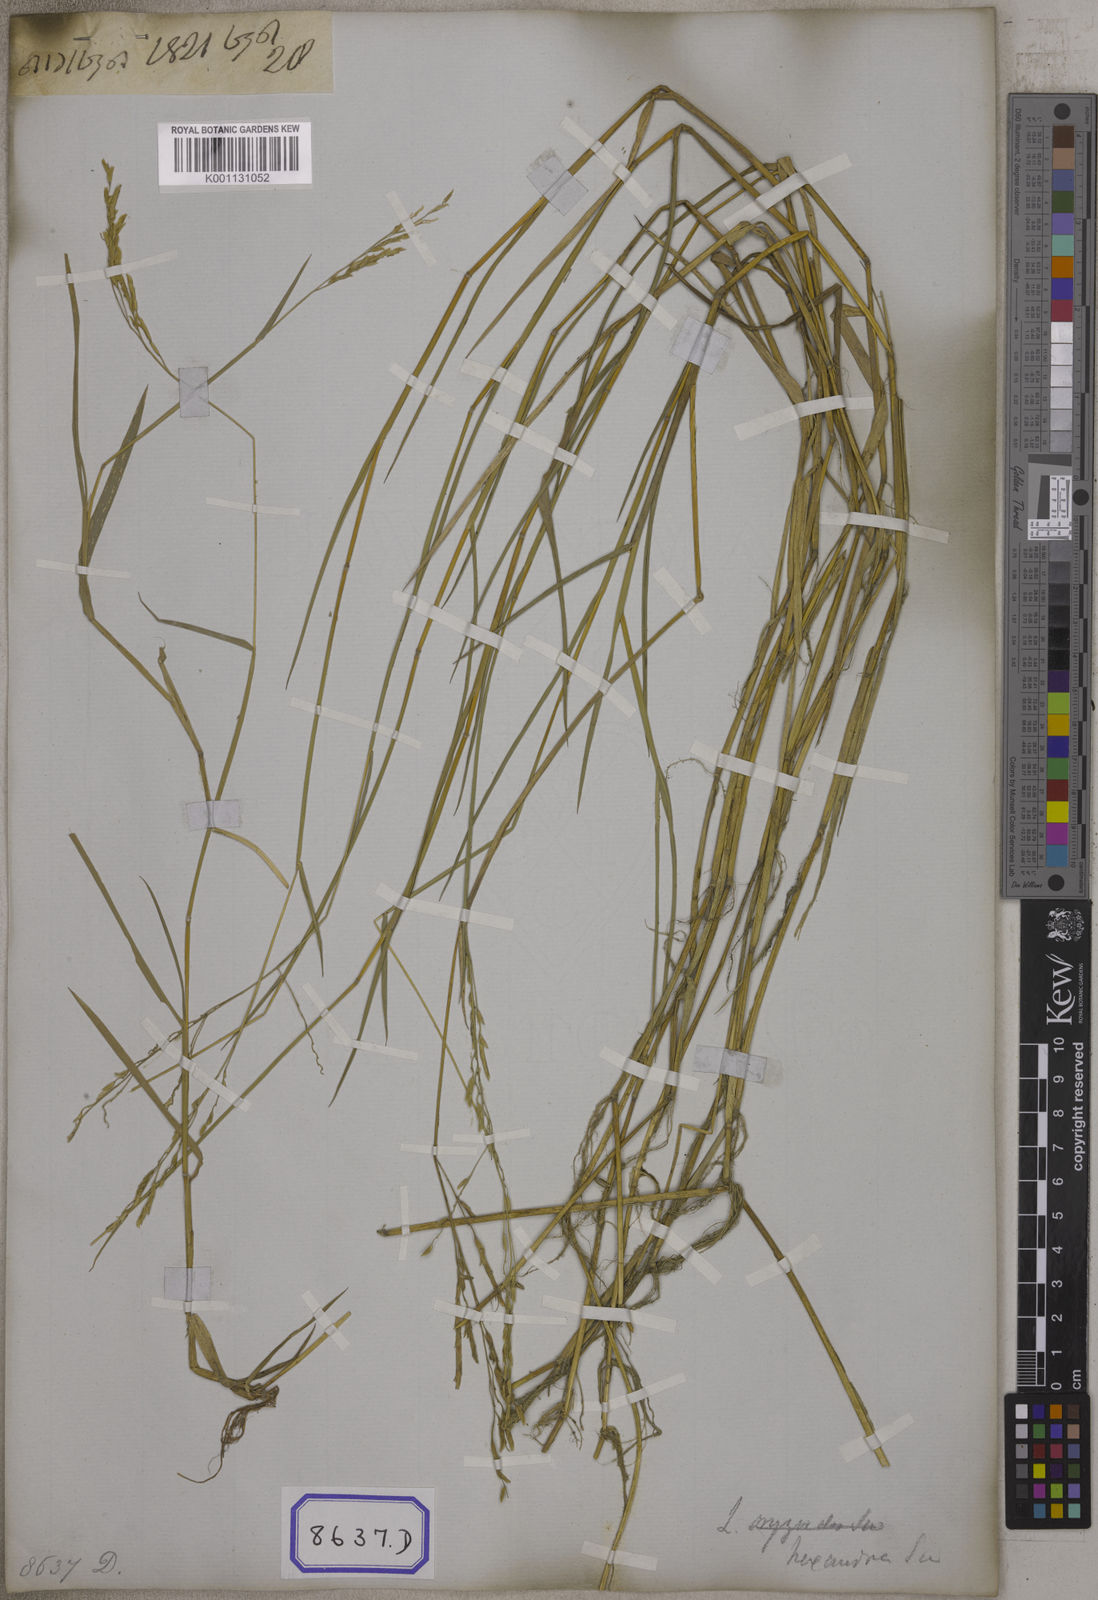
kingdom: Plantae
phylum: Tracheophyta
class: Liliopsida
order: Poales
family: Poaceae
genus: Leersia
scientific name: Leersia oryzoides
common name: Cut-grass
